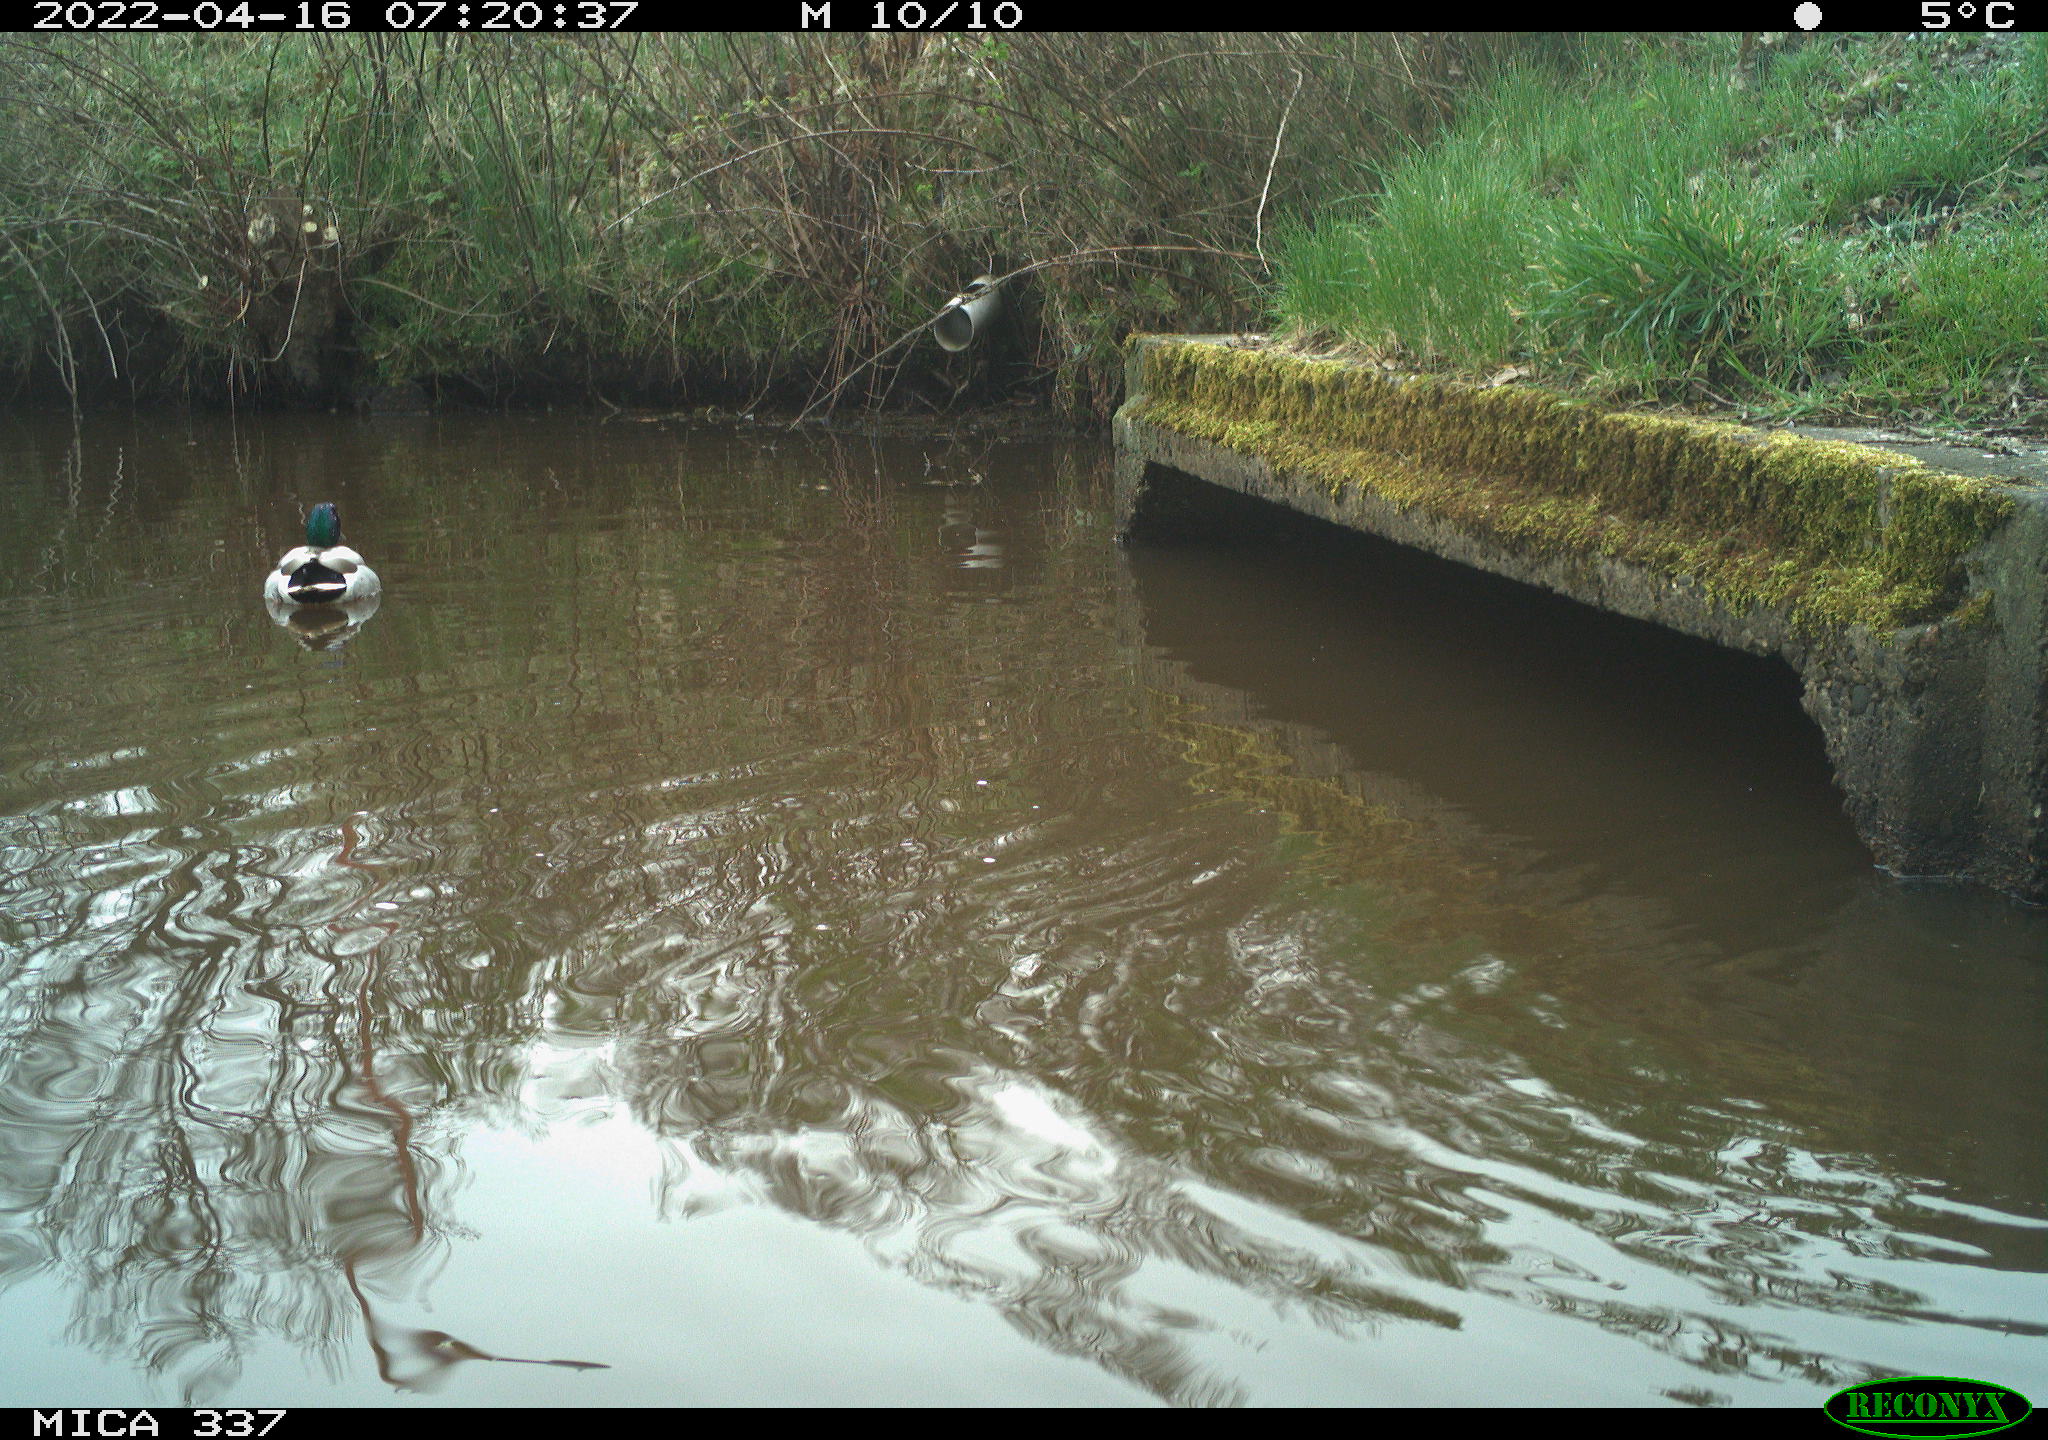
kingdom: Animalia
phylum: Chordata
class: Aves
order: Anseriformes
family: Anatidae
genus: Anas
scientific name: Anas platyrhynchos
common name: Mallard
